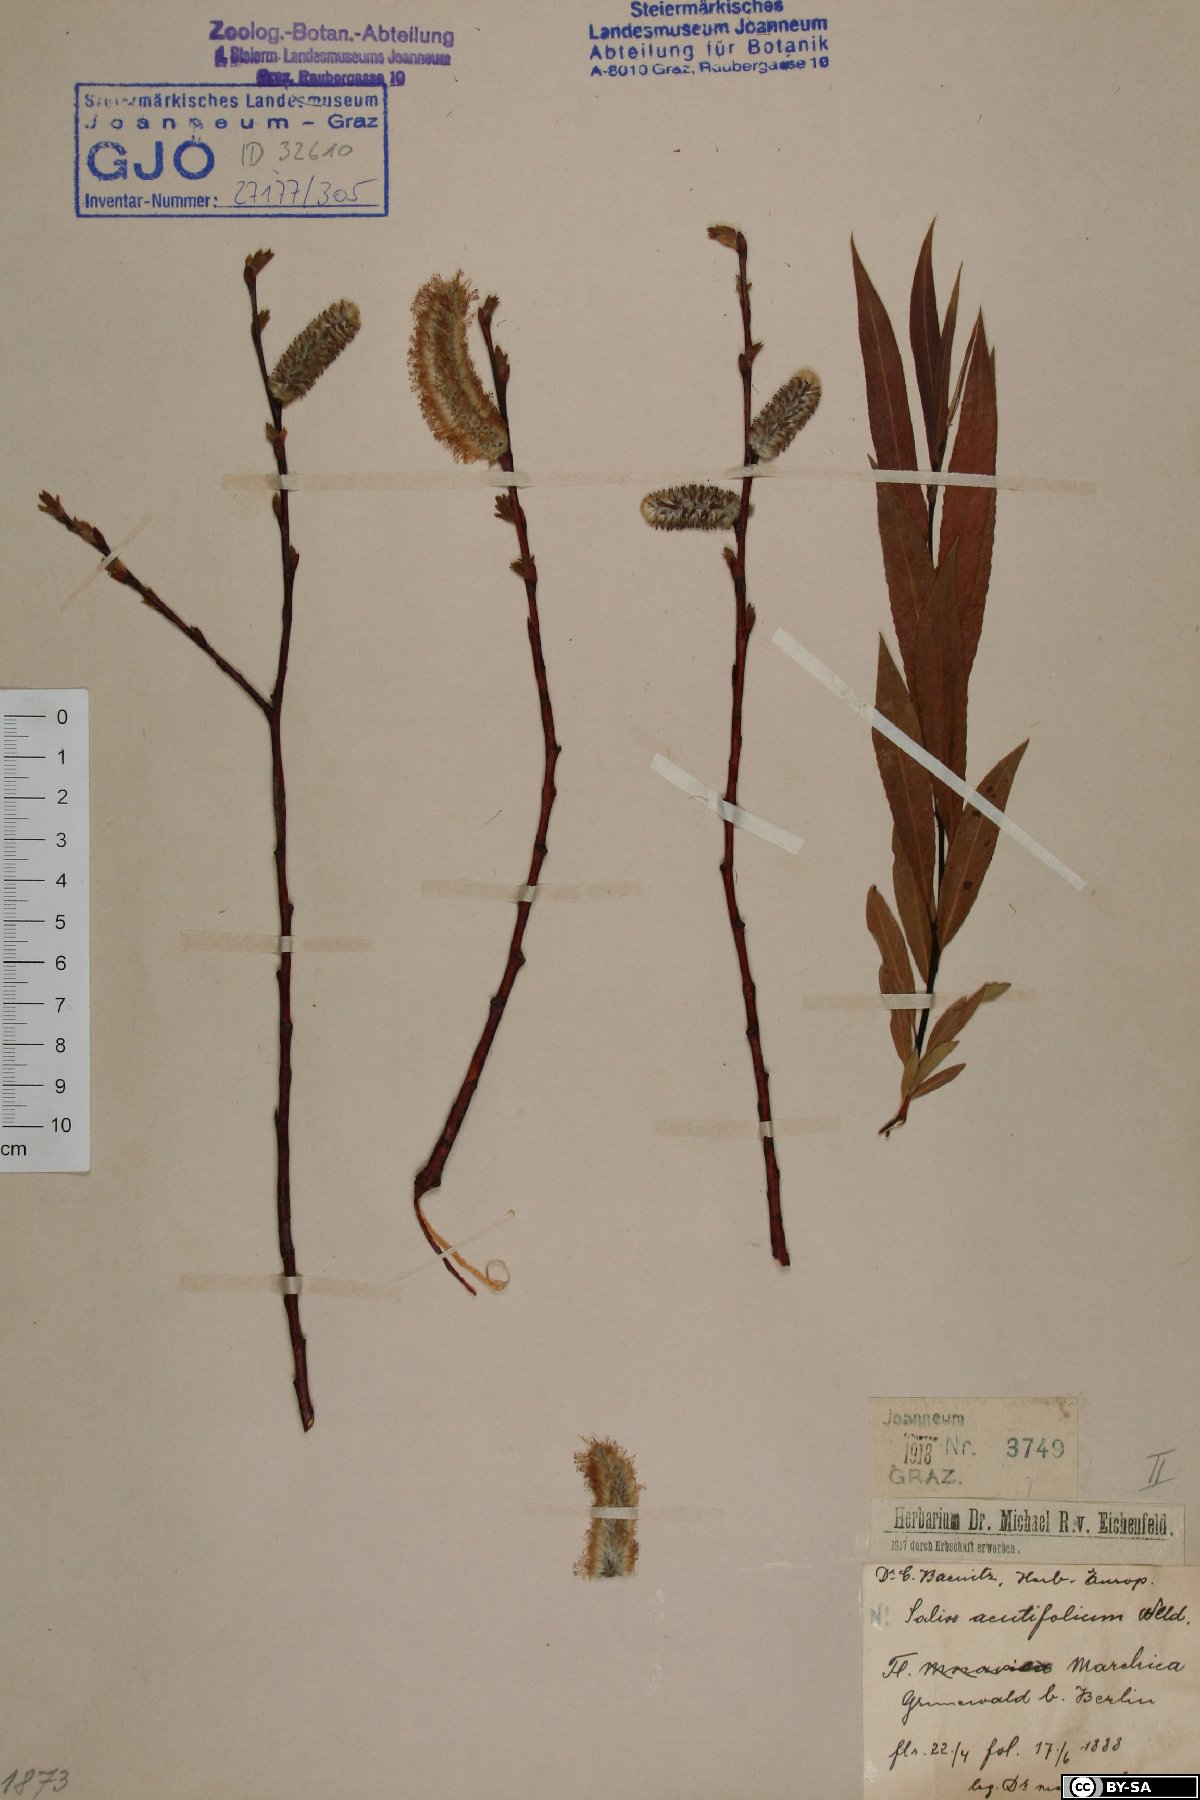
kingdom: Plantae
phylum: Tracheophyta
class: Magnoliopsida
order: Malpighiales
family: Salicaceae
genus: Salix
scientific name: Salix acutifolia
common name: Siberian violet-willow
